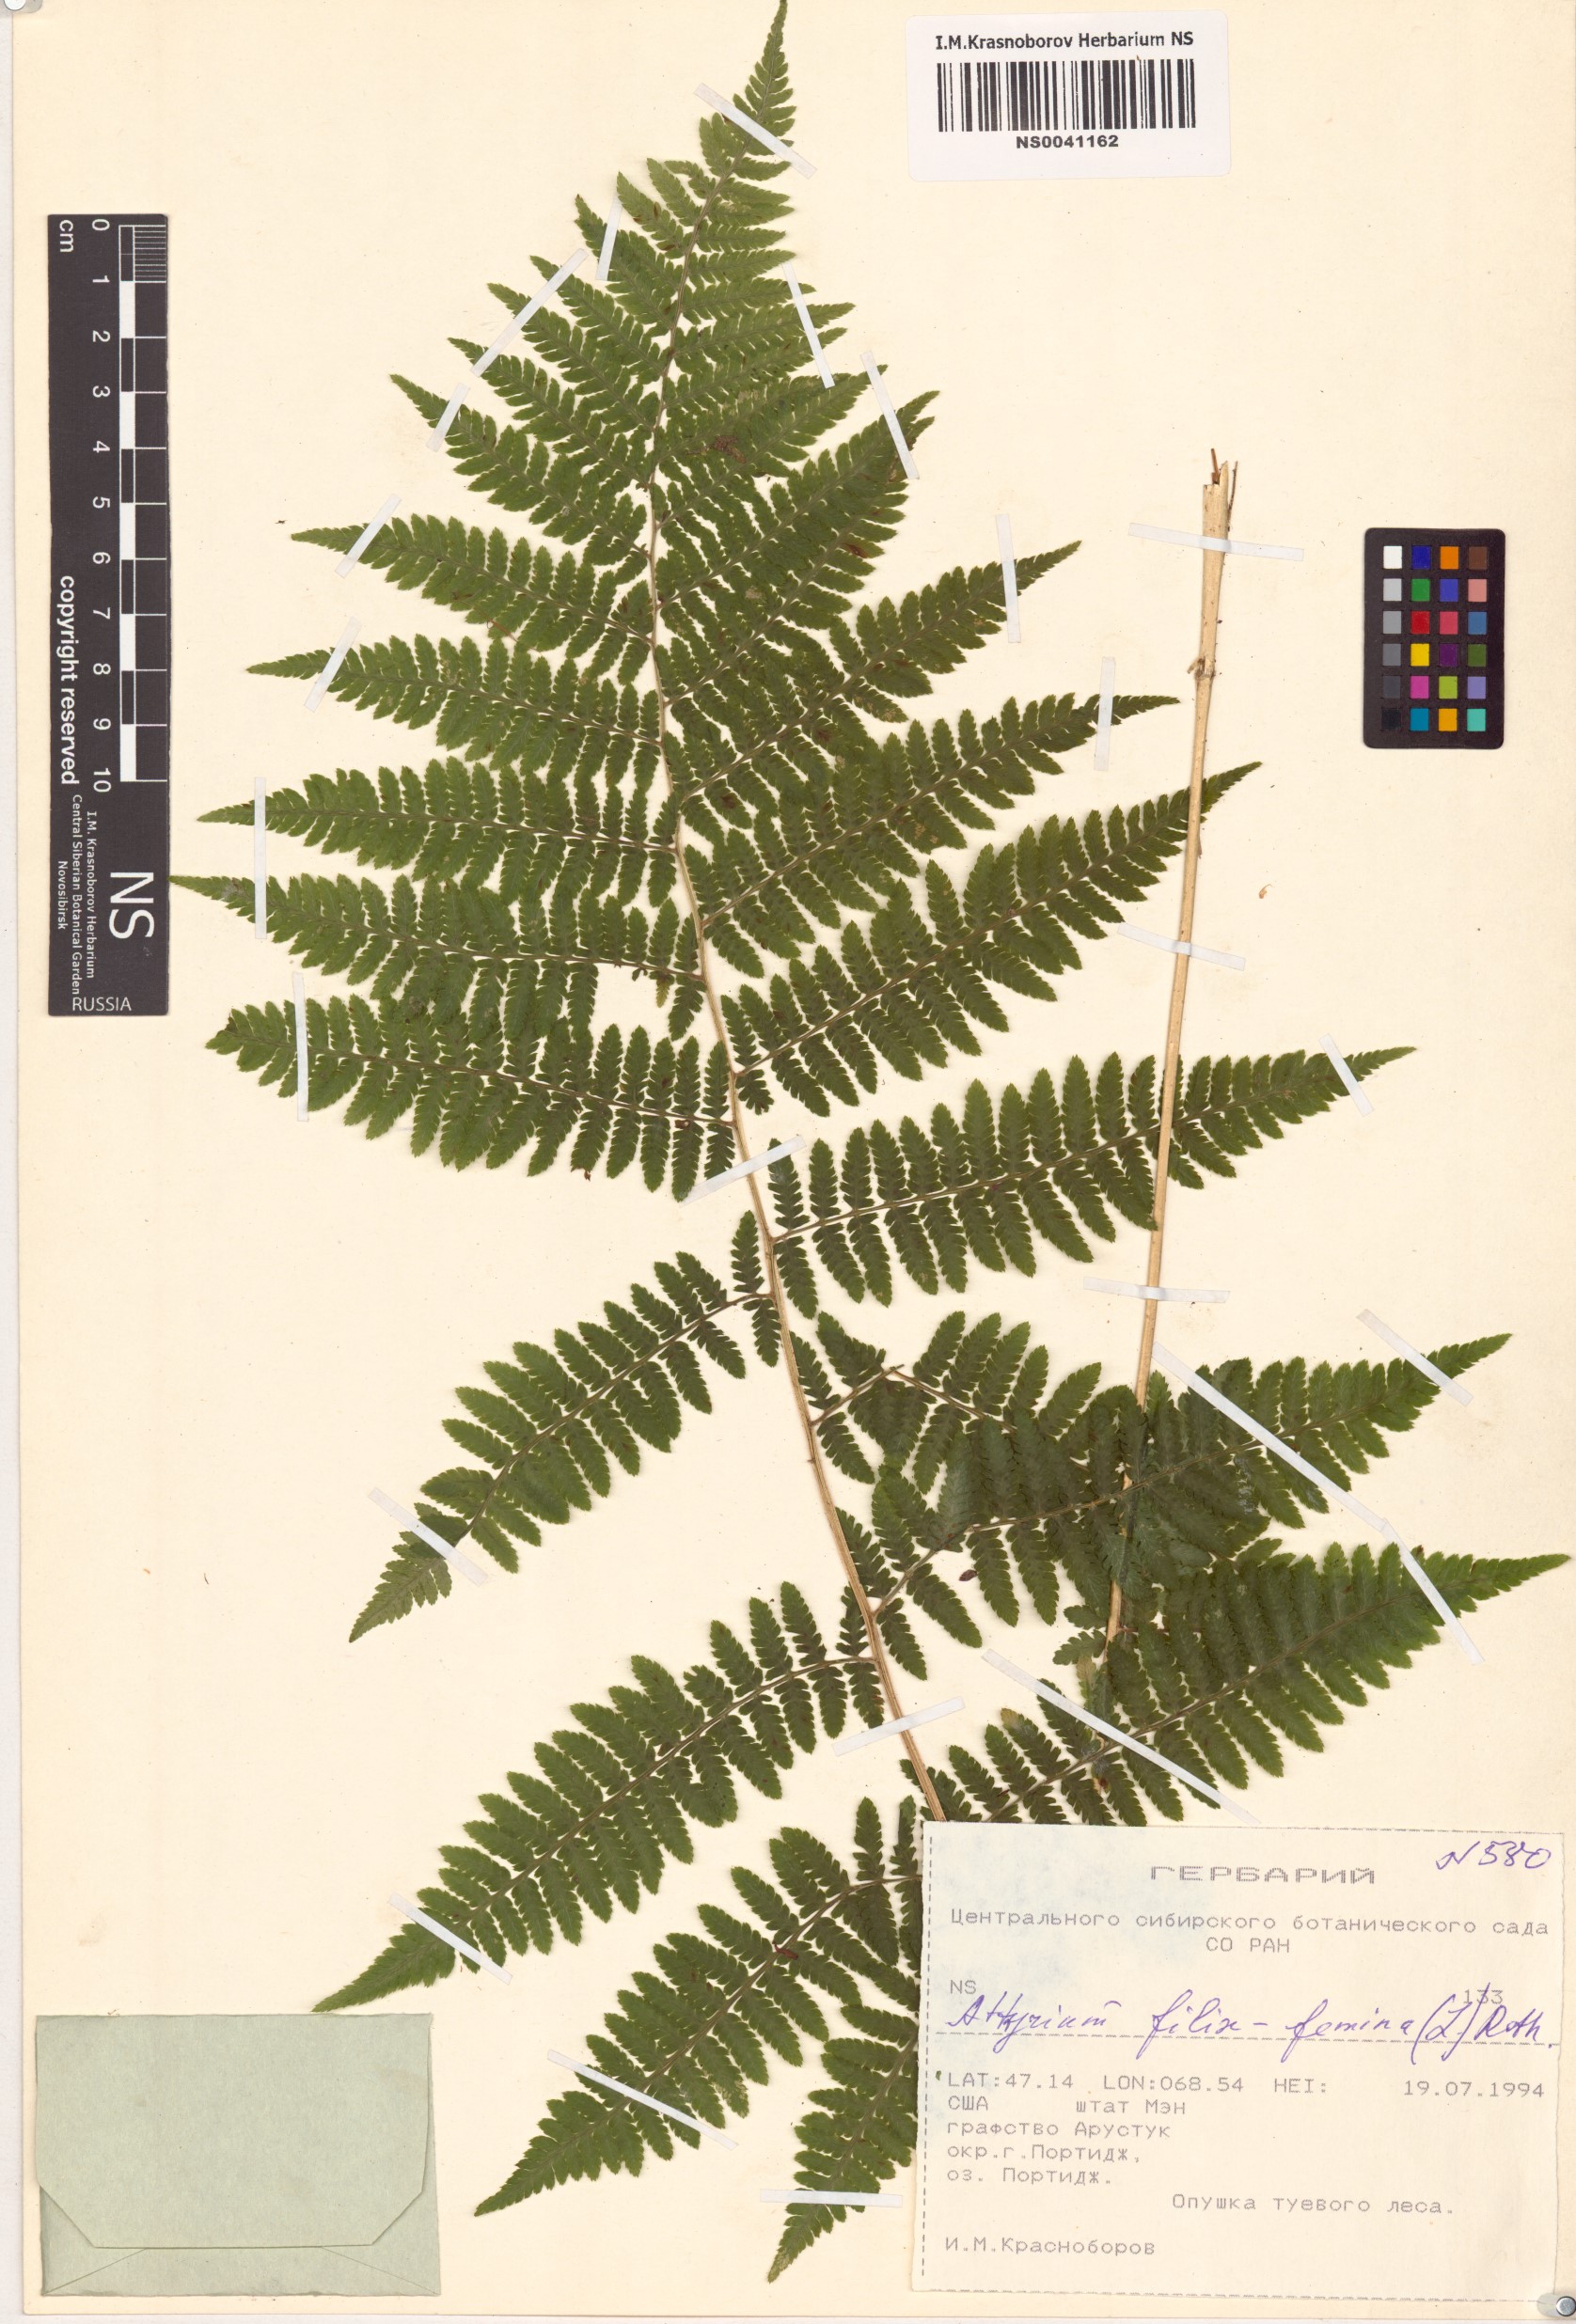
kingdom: Plantae
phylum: Tracheophyta
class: Polypodiopsida
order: Polypodiales
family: Athyriaceae
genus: Athyrium
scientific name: Athyrium filix-femina
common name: Lady fern
